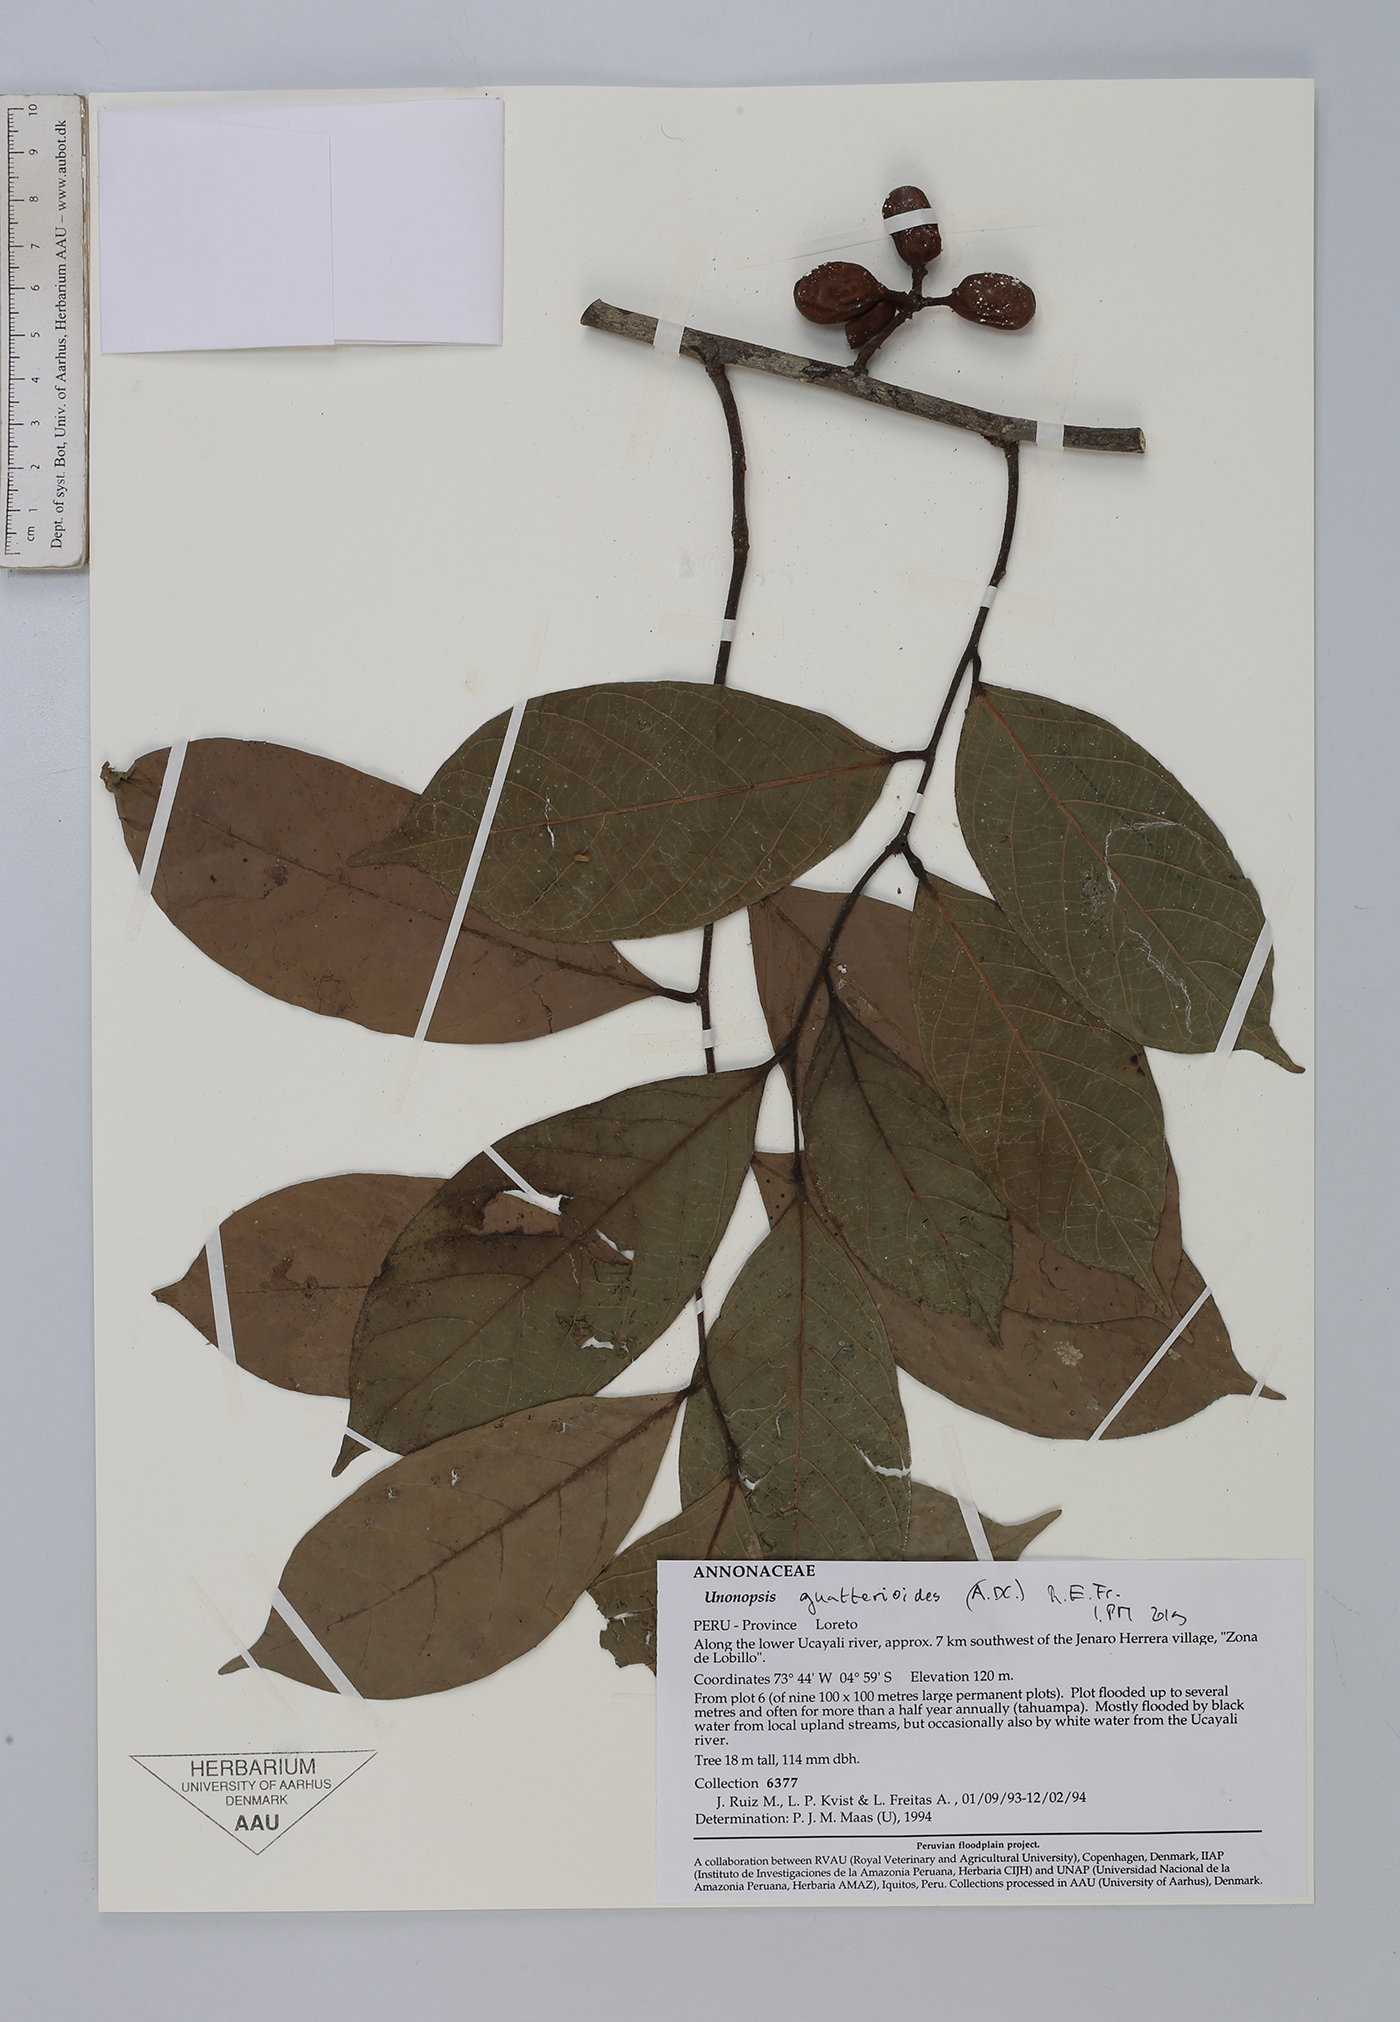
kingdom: Plantae
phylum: Tracheophyta
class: Magnoliopsida
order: Magnoliales
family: Annonaceae
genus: Unonopsis
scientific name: Unonopsis guatterioides
